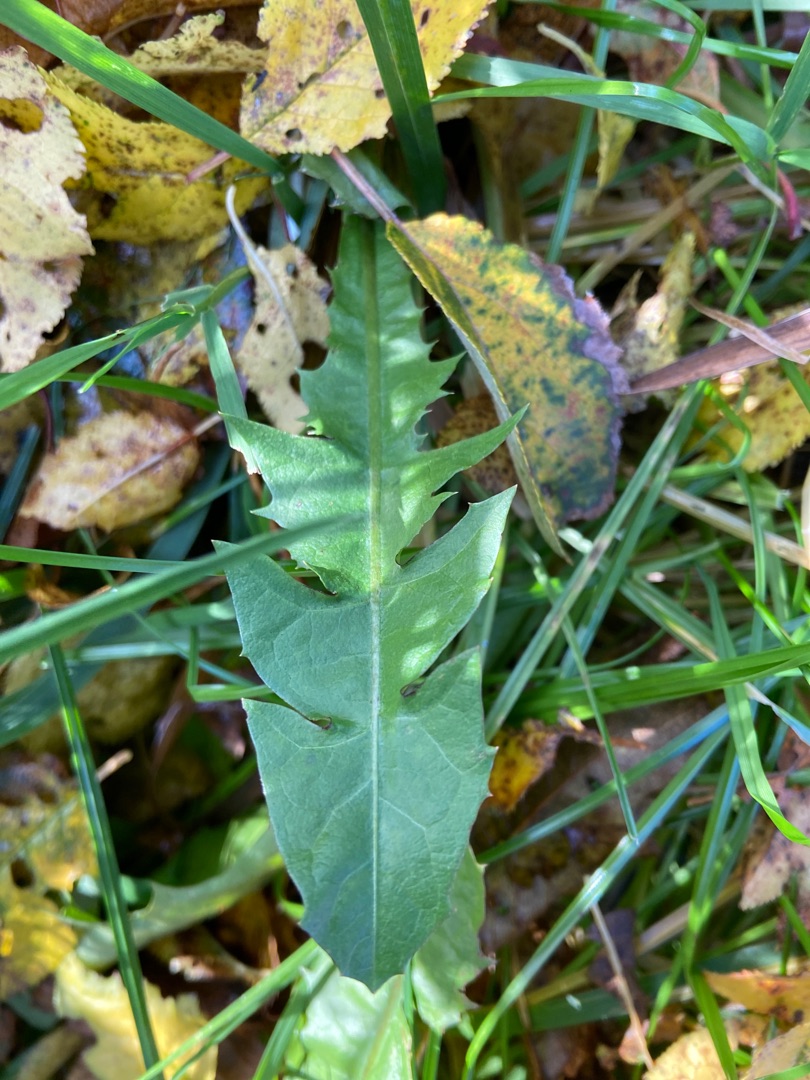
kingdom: Plantae
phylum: Tracheophyta
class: Magnoliopsida
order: Asterales
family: Asteraceae
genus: Taraxacum
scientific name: Taraxacum
